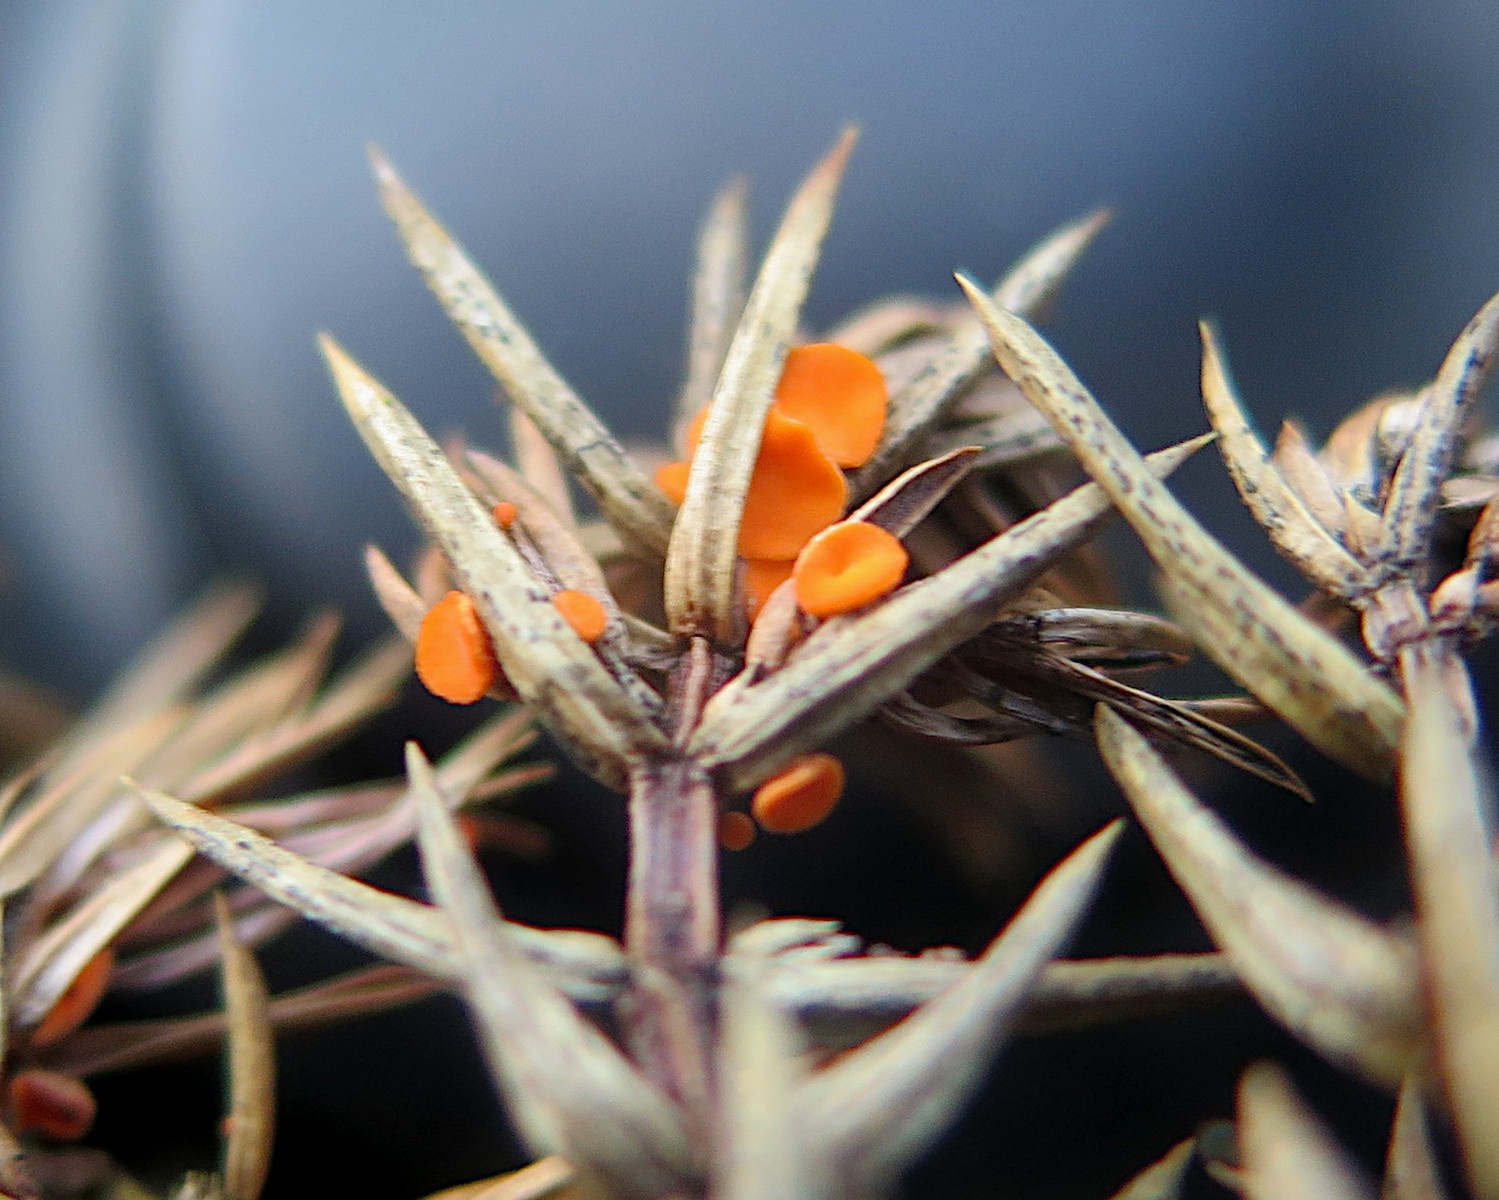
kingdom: Fungi
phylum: Ascomycota
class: Pezizomycetes
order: Pezizales
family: Sarcoscyphaceae
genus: Pithya
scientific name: Pithya cupressina
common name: lille dukatbæger
